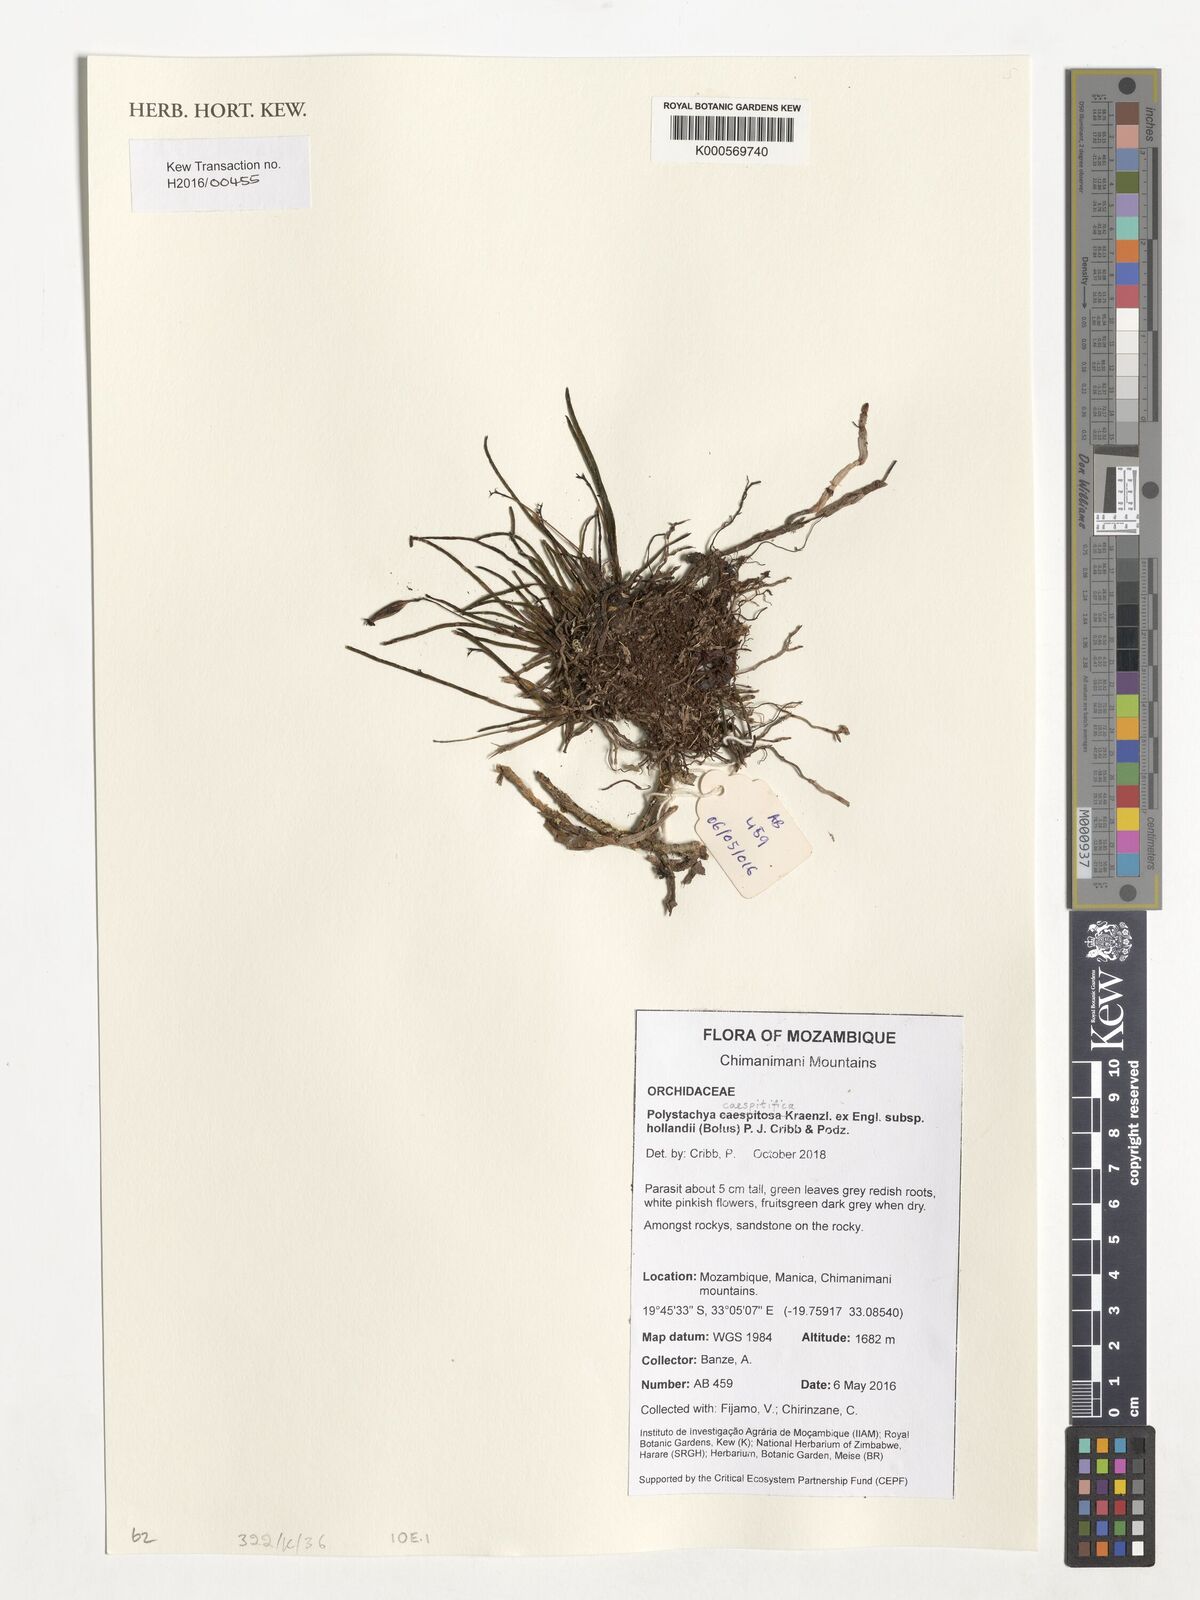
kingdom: Plantae
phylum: Tracheophyta
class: Liliopsida
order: Asparagales
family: Orchidaceae
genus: Polystachya
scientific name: Polystachya caespitifica
